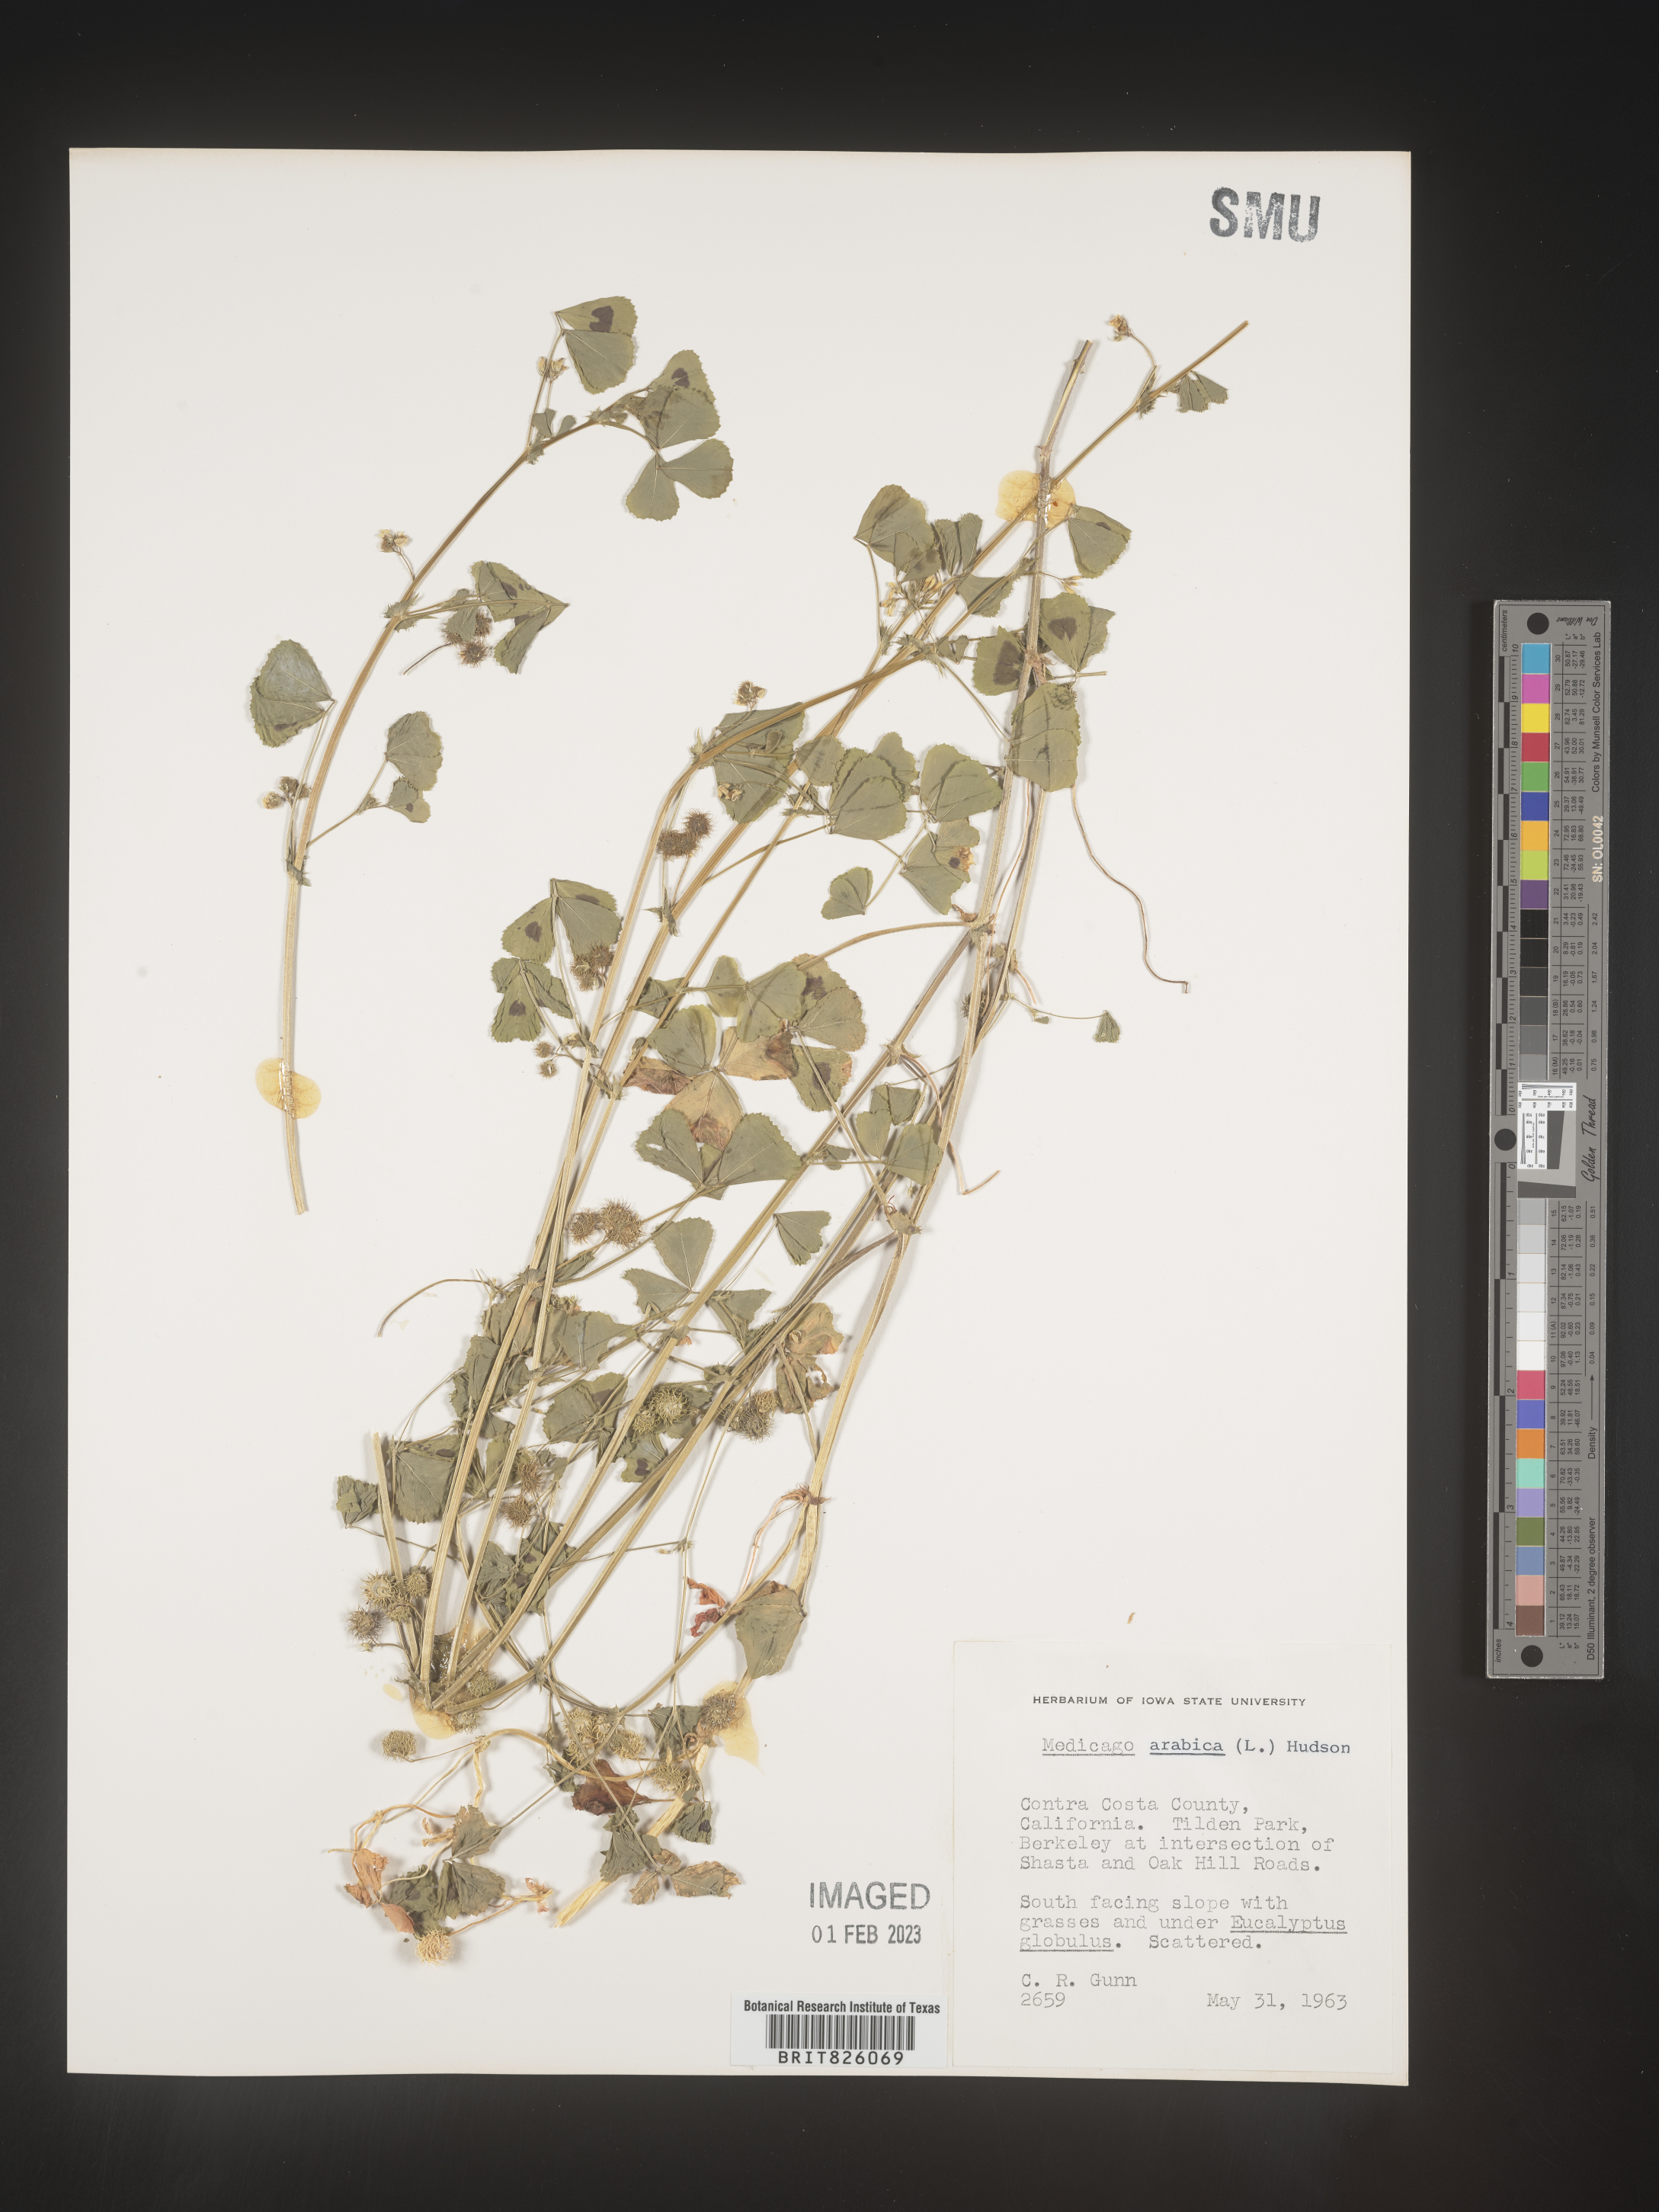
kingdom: Plantae
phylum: Tracheophyta
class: Magnoliopsida
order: Fabales
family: Fabaceae
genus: Medicago
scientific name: Medicago arabica
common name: Spotted medick
